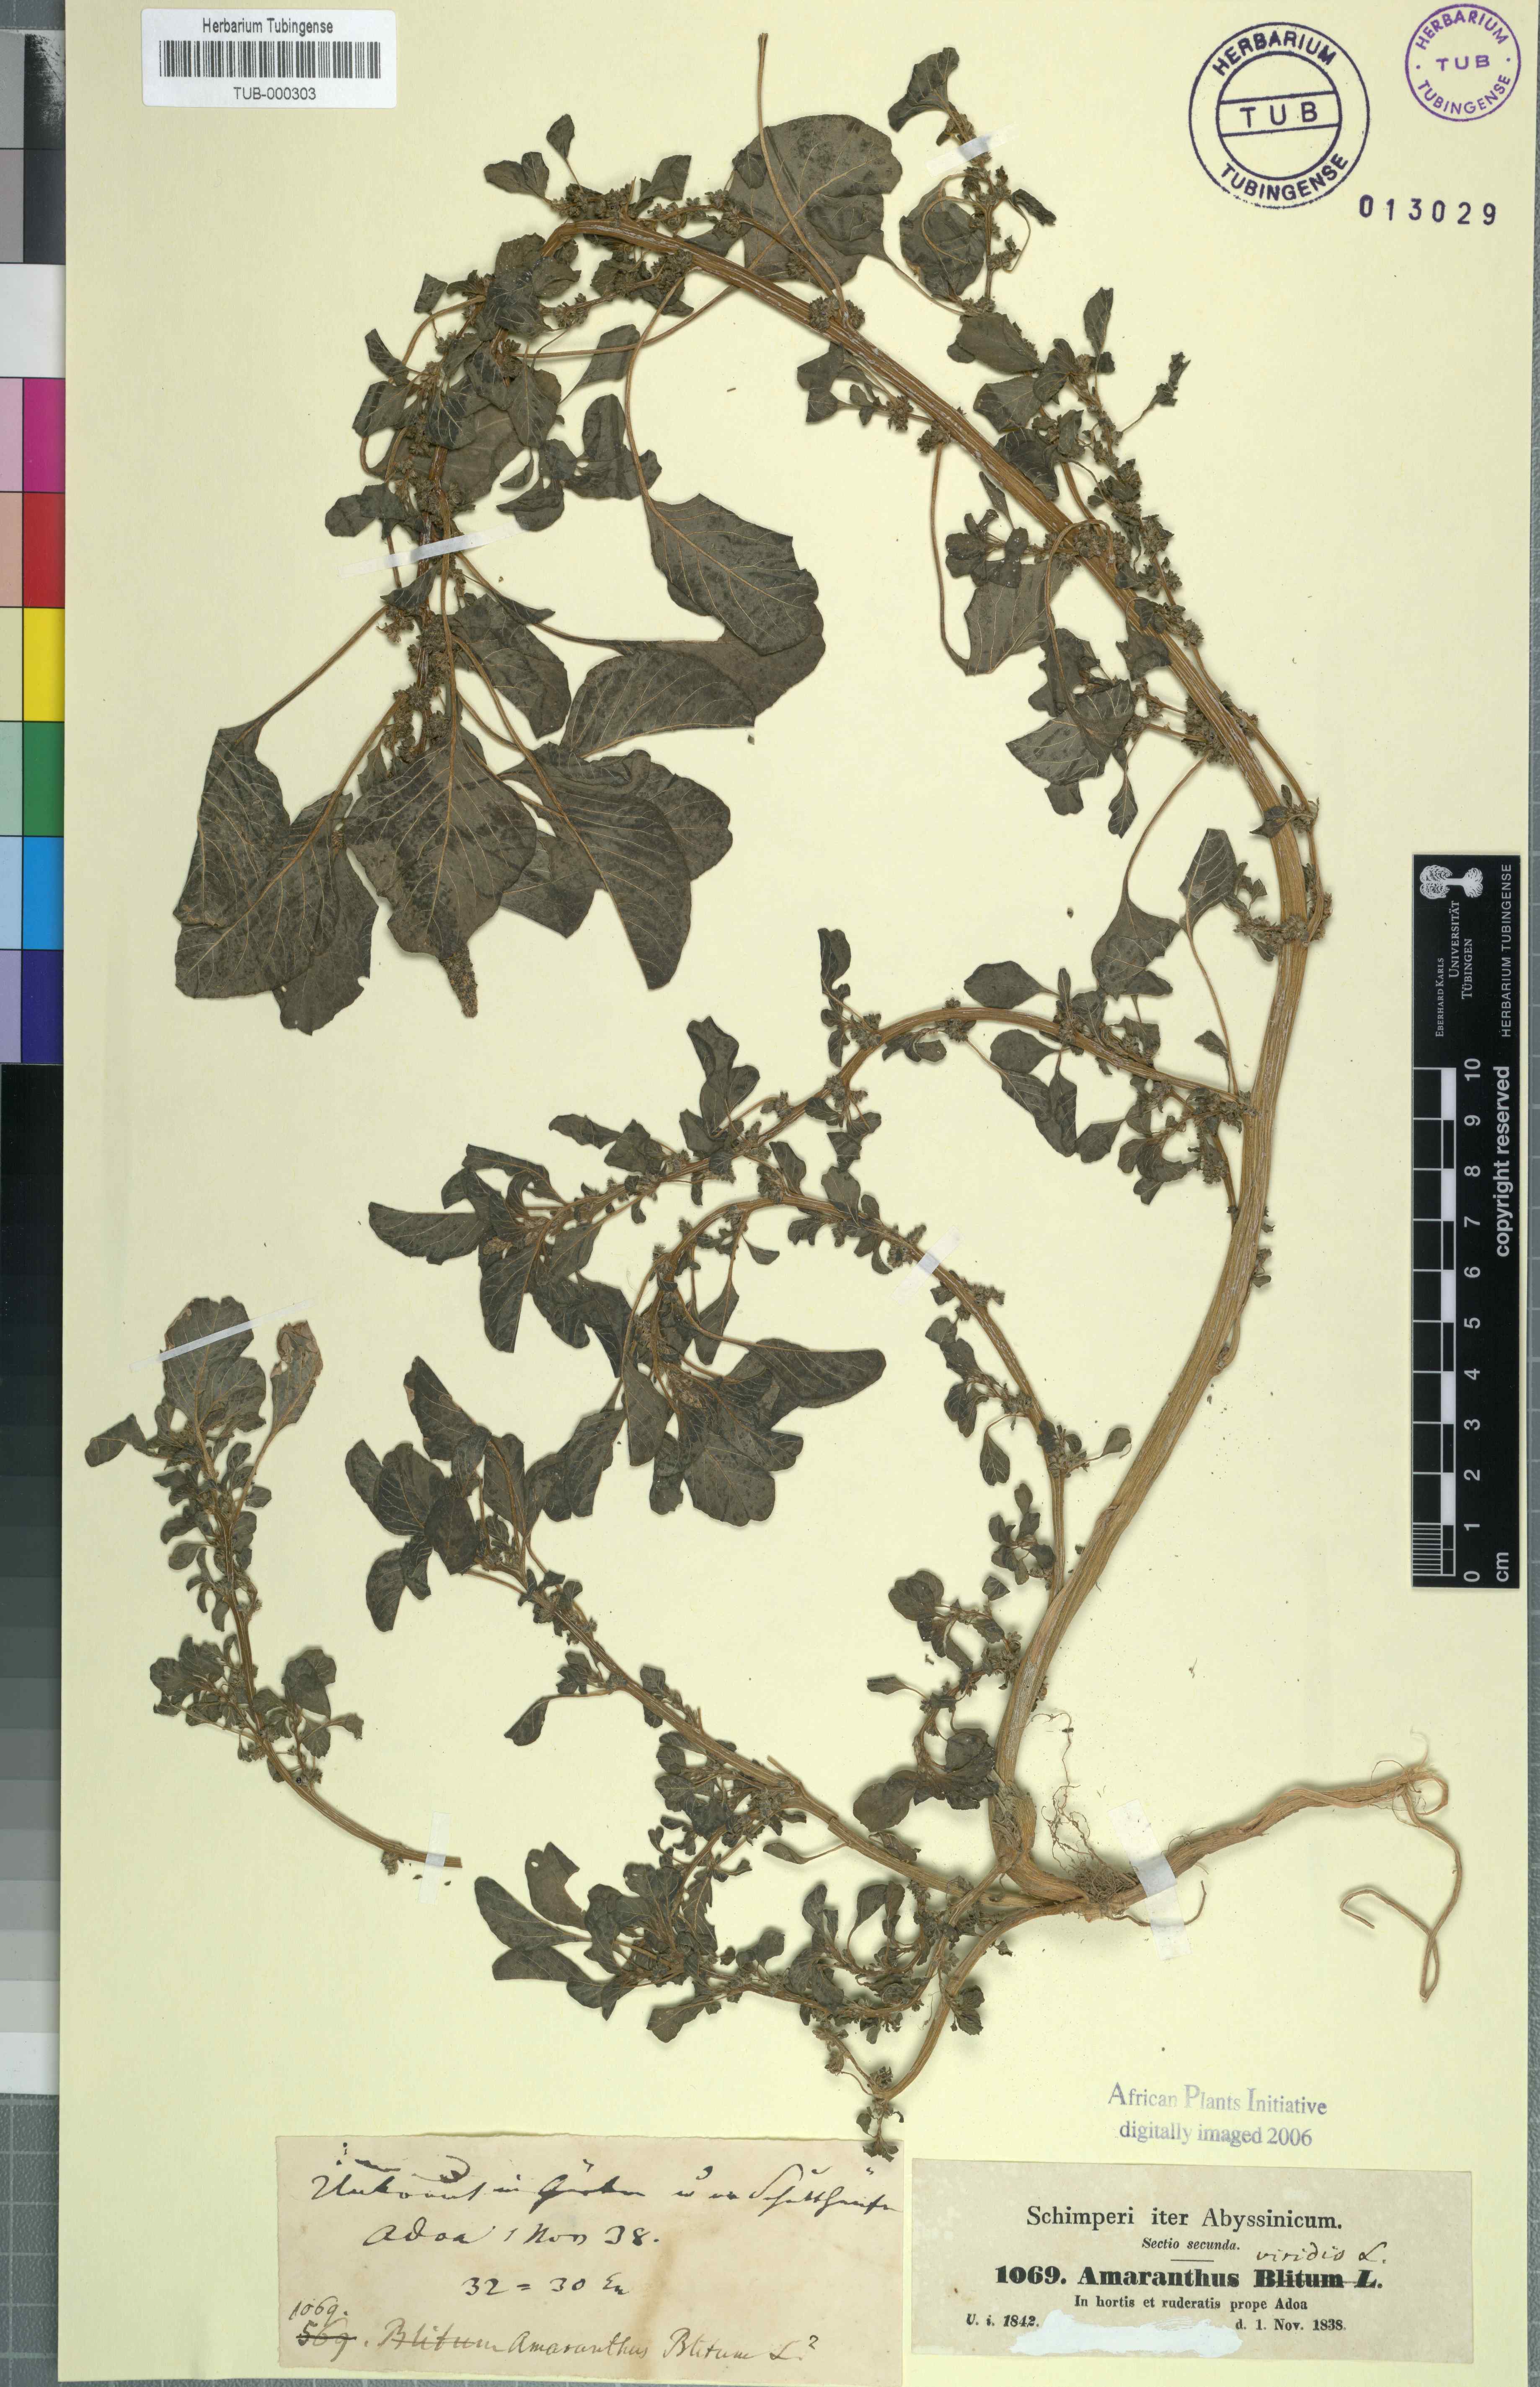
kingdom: Plantae
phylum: Tracheophyta
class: Magnoliopsida
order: Caryophyllales
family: Amaranthaceae
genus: Amaranthus
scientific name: Amaranthus viridis
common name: Slender amaranth
